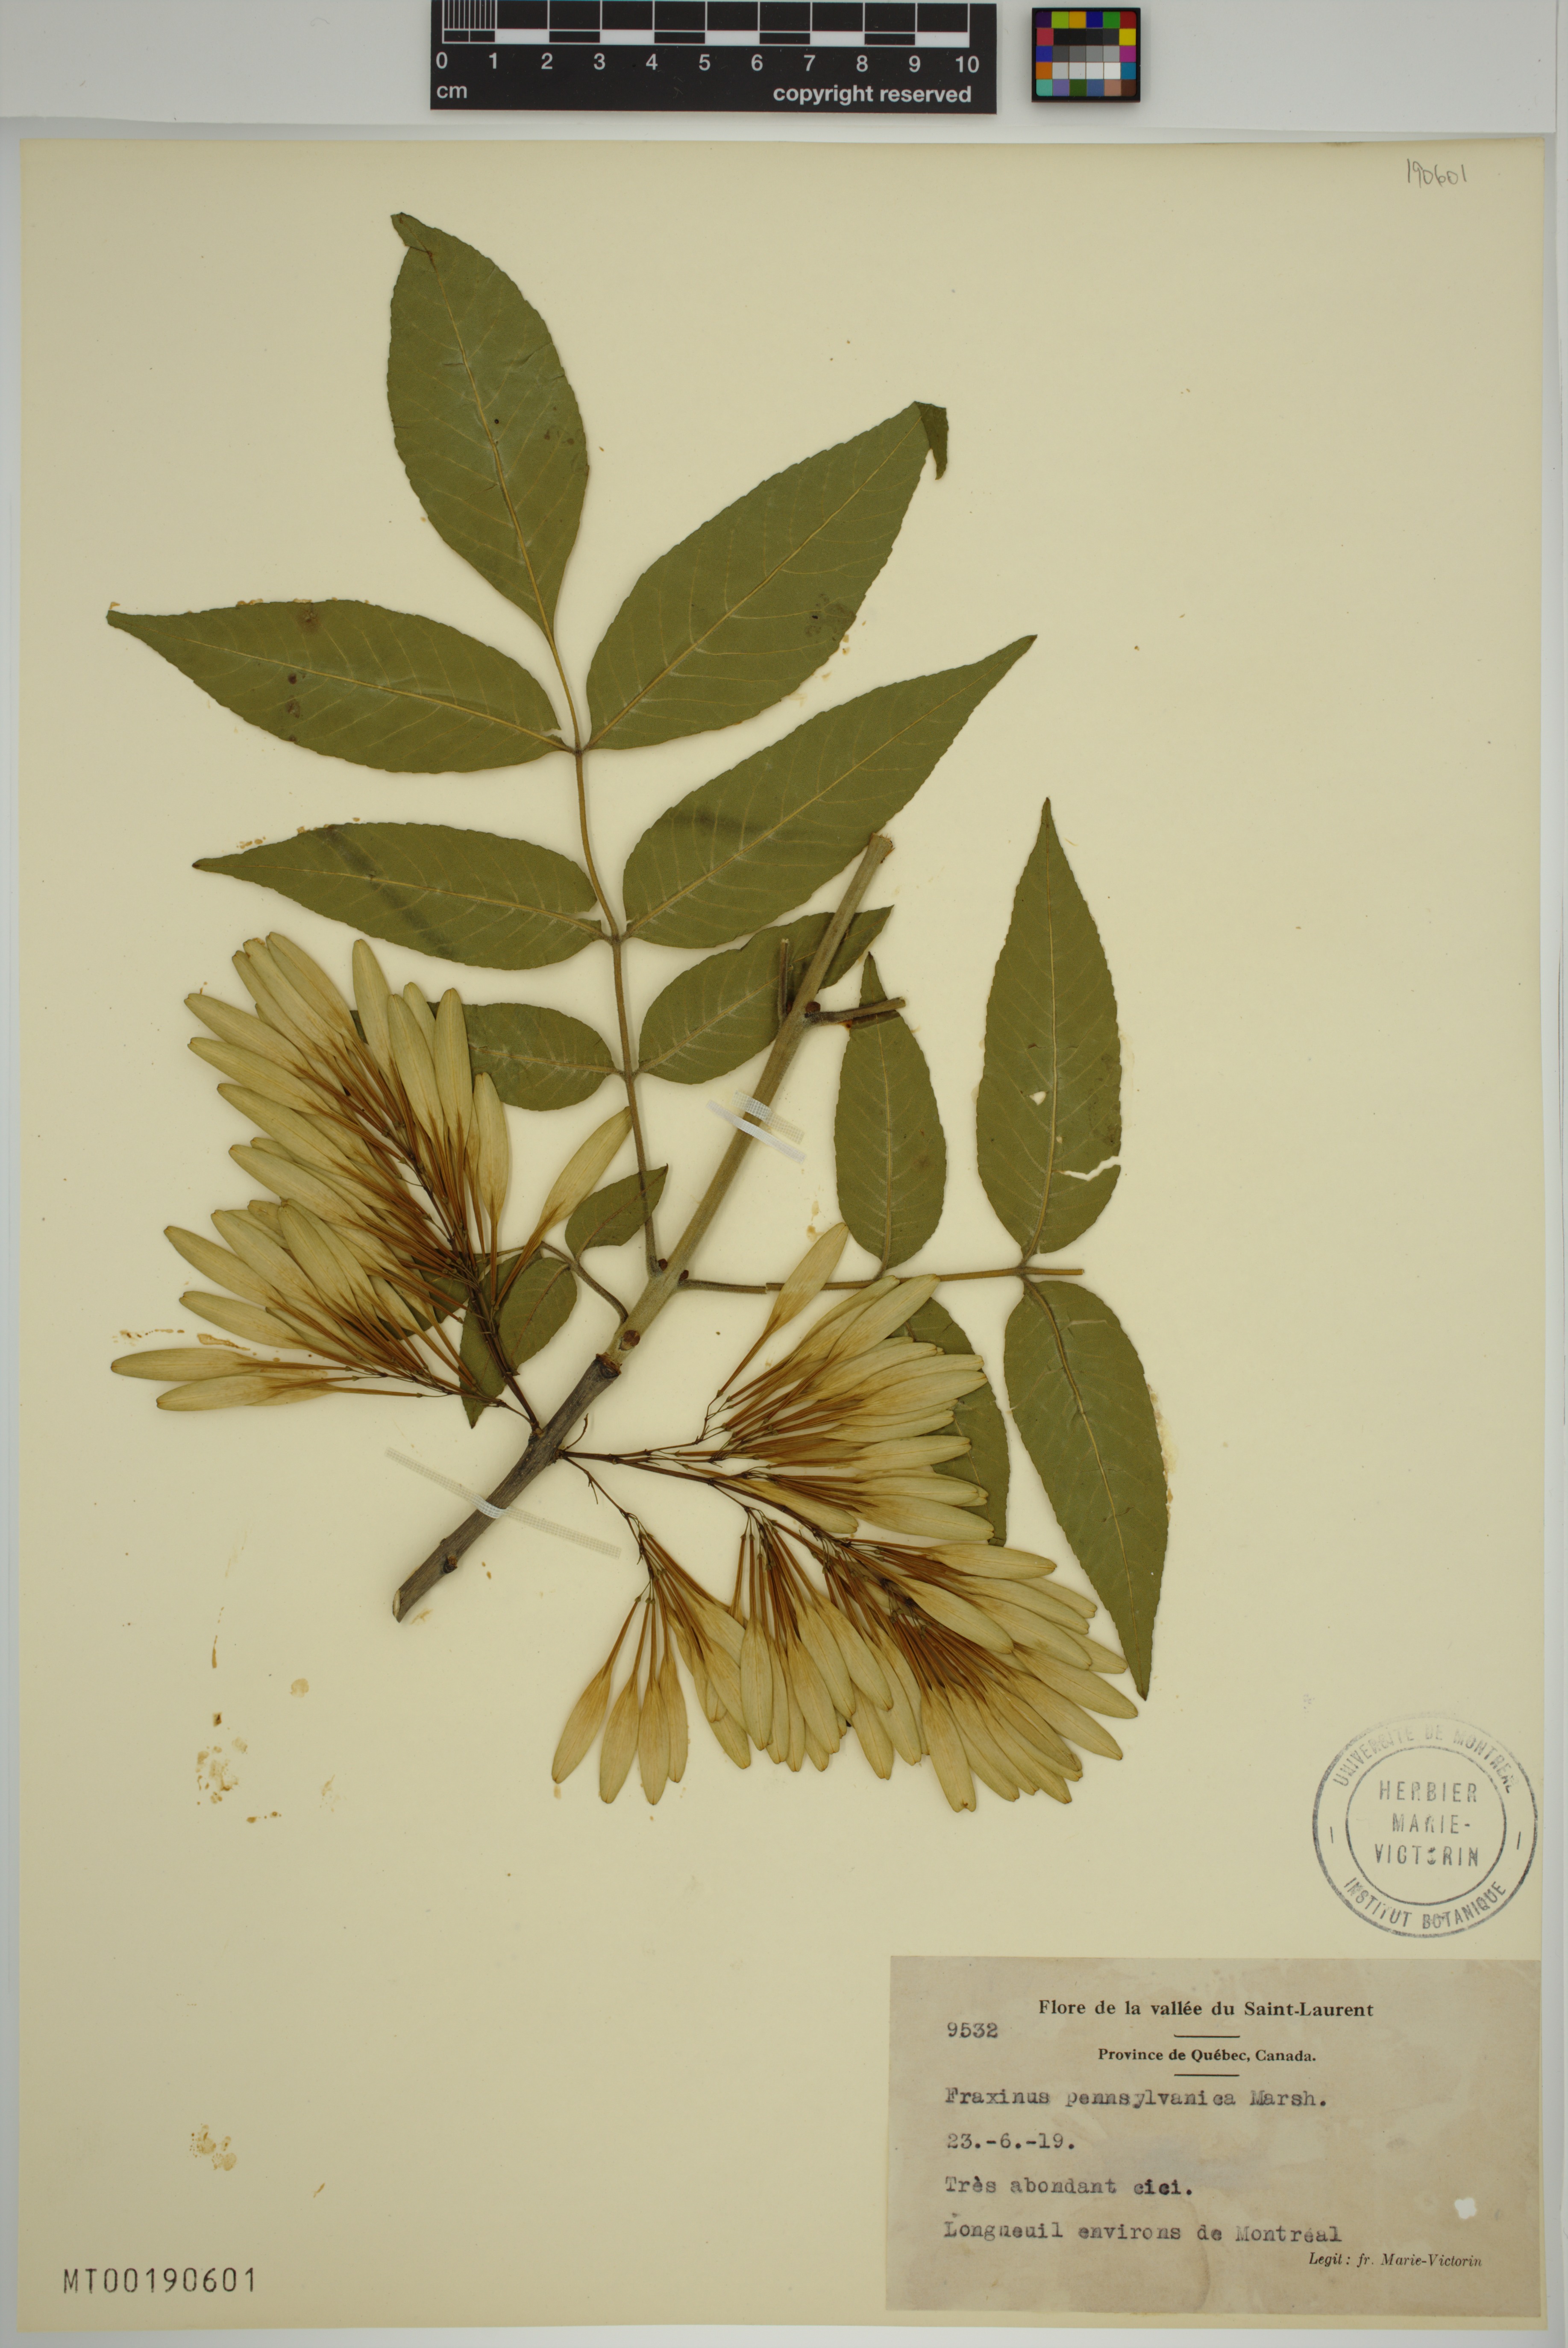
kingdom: Plantae
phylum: Tracheophyta
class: Magnoliopsida
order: Lamiales
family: Oleaceae
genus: Fraxinus
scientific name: Fraxinus pennsylvanica
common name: Green ash
